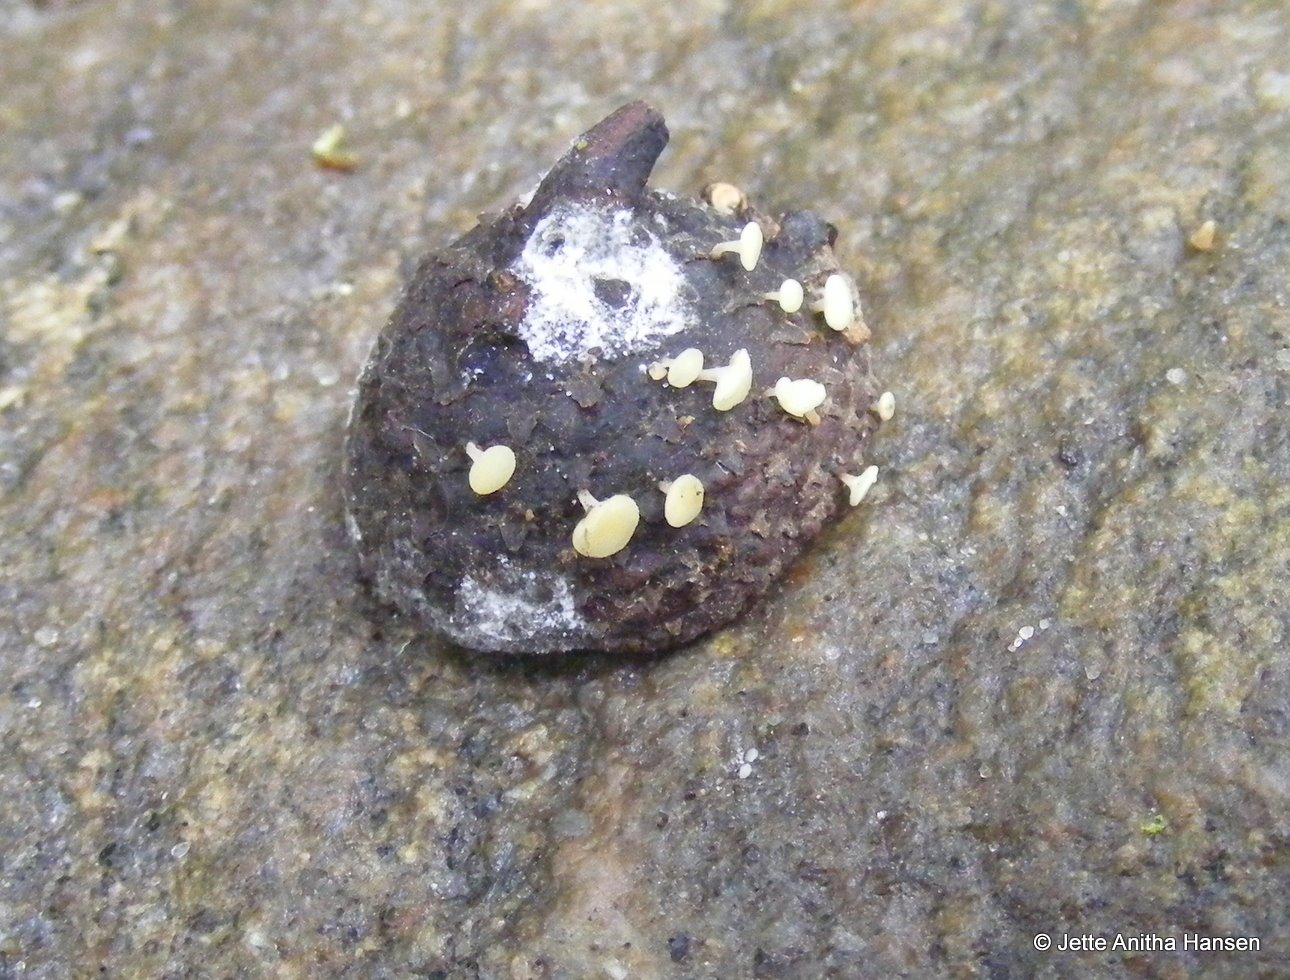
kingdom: Fungi
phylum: Ascomycota
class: Leotiomycetes
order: Helotiales
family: Helotiaceae
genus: Hymenoscyphus
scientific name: Hymenoscyphus fructigenus
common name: frugt-stilkskive
